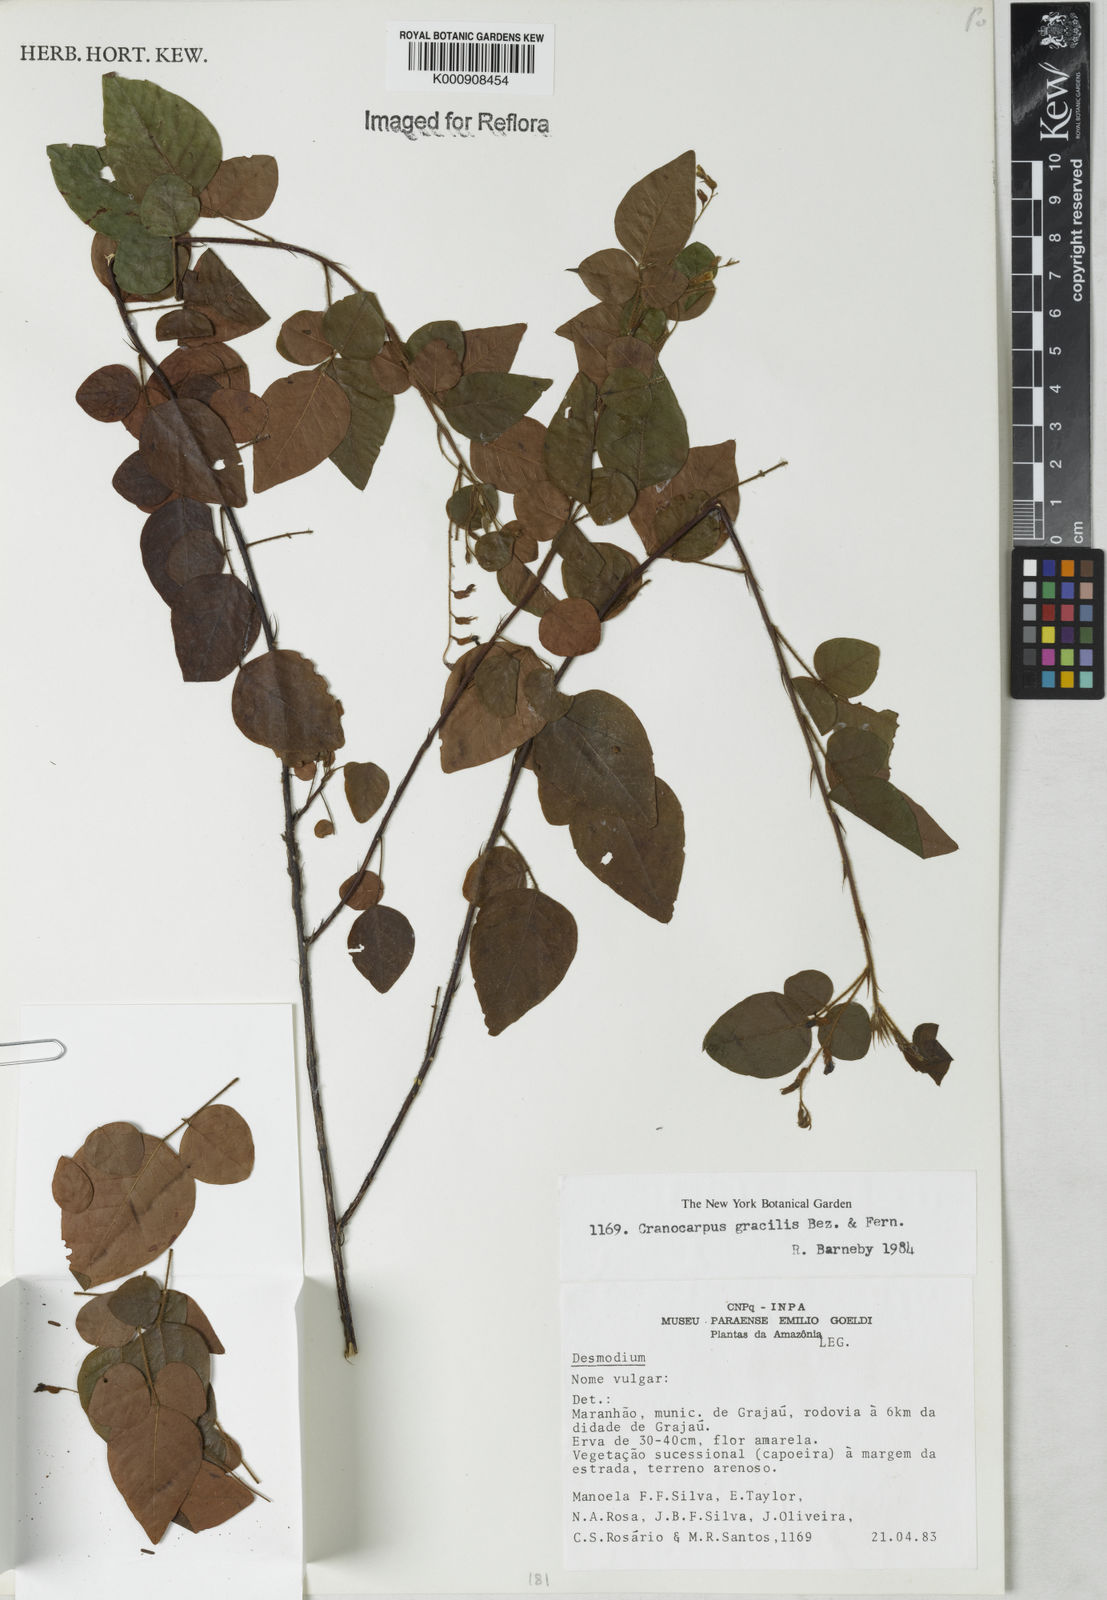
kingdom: Plantae
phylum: Tracheophyta
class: Magnoliopsida
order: Fabales
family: Fabaceae
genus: Cranocarpus
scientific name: Cranocarpus gracilis
